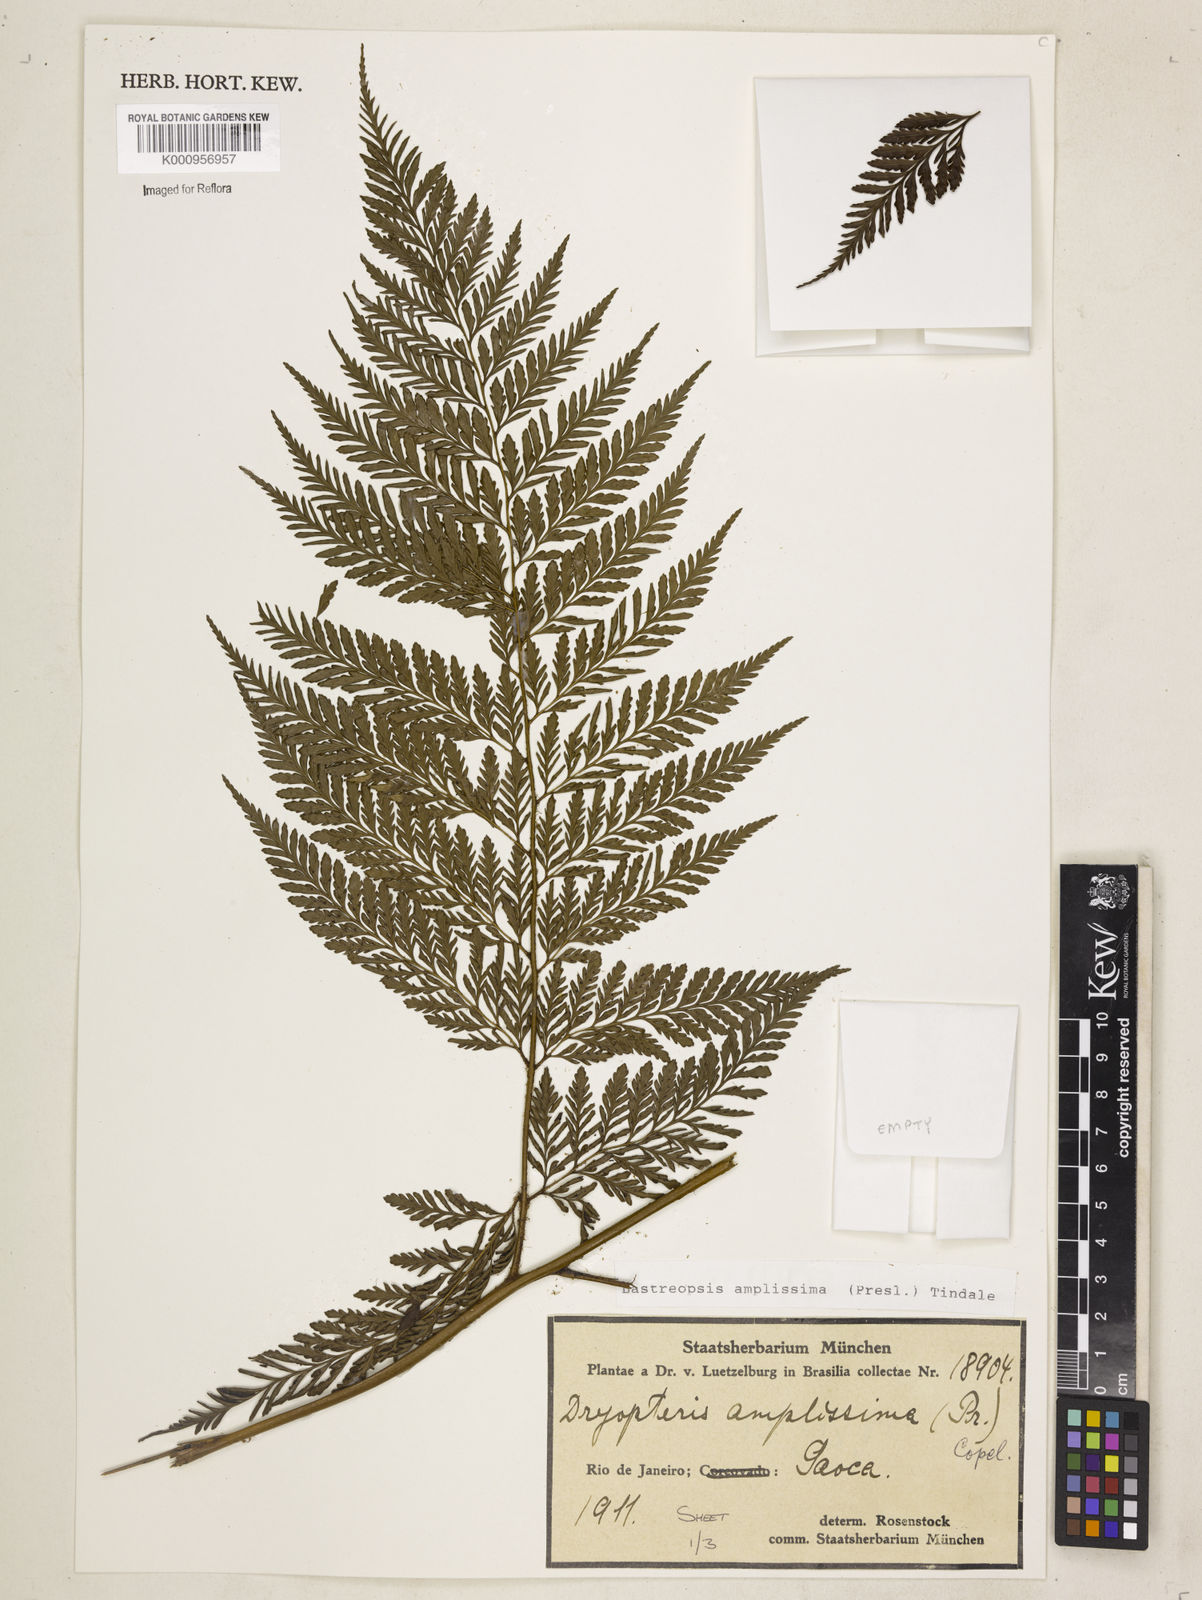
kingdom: Plantae
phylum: Tracheophyta
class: Polypodiopsida
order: Polypodiales
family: Dryopteridaceae
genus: Lastreopsis
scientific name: Lastreopsis amplissima
